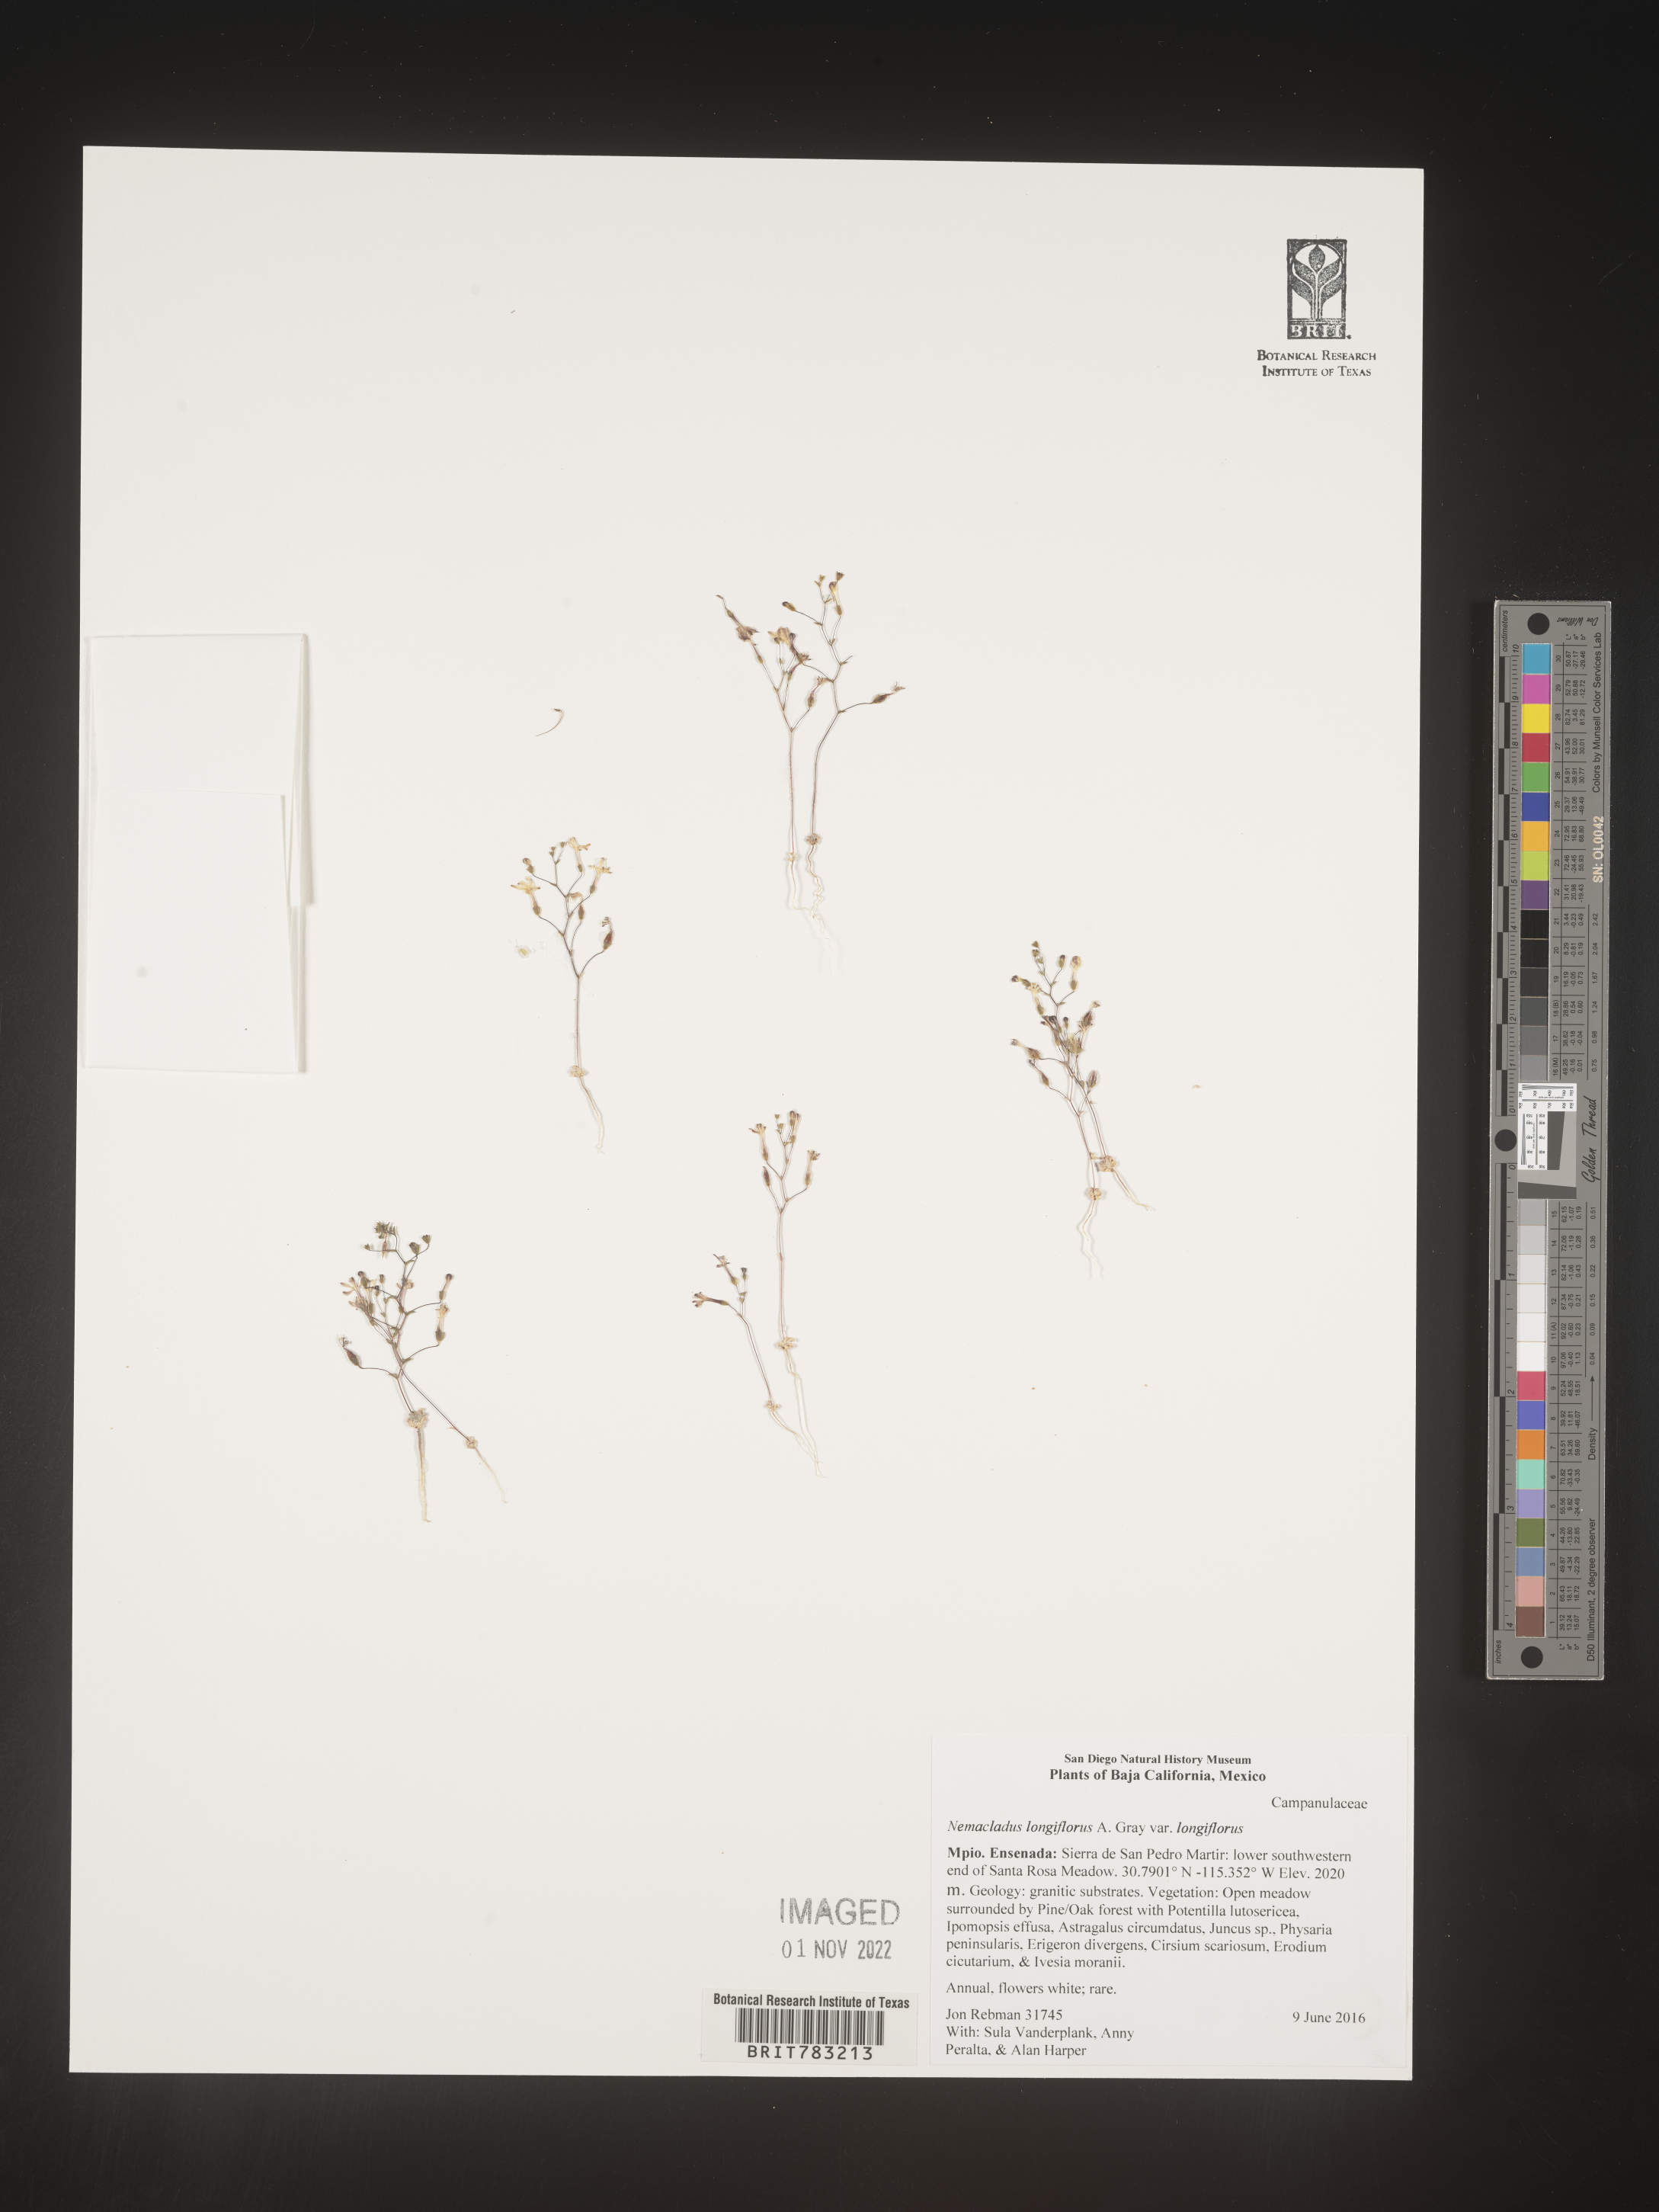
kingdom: Plantae
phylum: Tracheophyta
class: Magnoliopsida
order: Asterales
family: Campanulaceae
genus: Nemacladus
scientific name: Nemacladus
